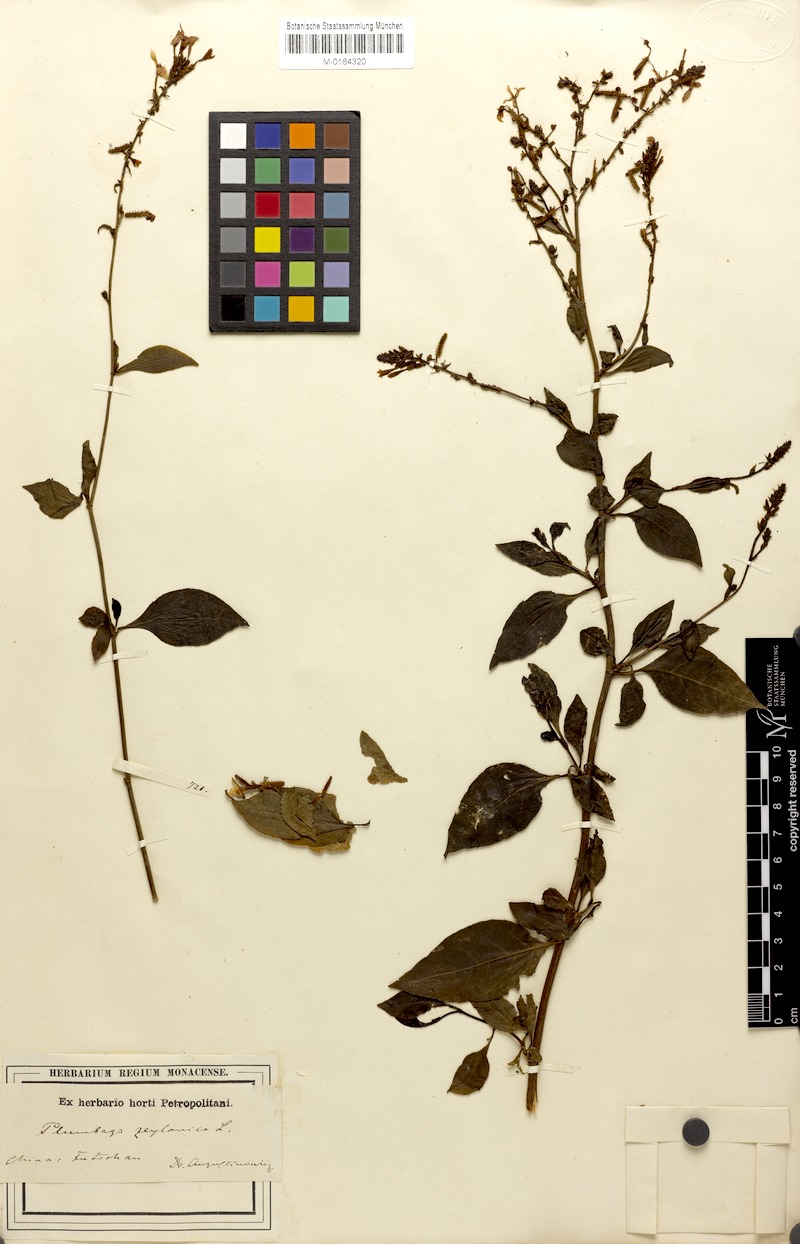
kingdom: Plantae
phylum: Tracheophyta
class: Magnoliopsida
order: Caryophyllales
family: Plumbaginaceae
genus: Plumbago
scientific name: Plumbago zeylanica
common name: Doctorbush
